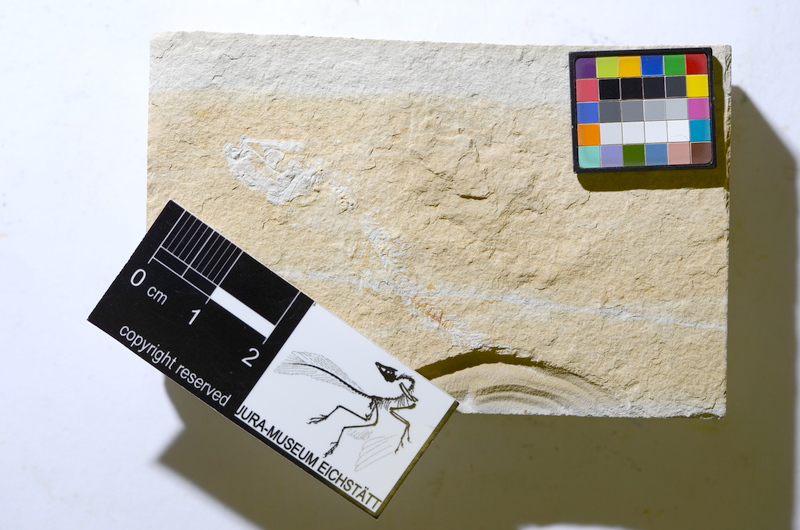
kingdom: Animalia
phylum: Chordata
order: Salmoniformes
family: Orthogonikleithridae
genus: Leptolepides
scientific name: Leptolepides
